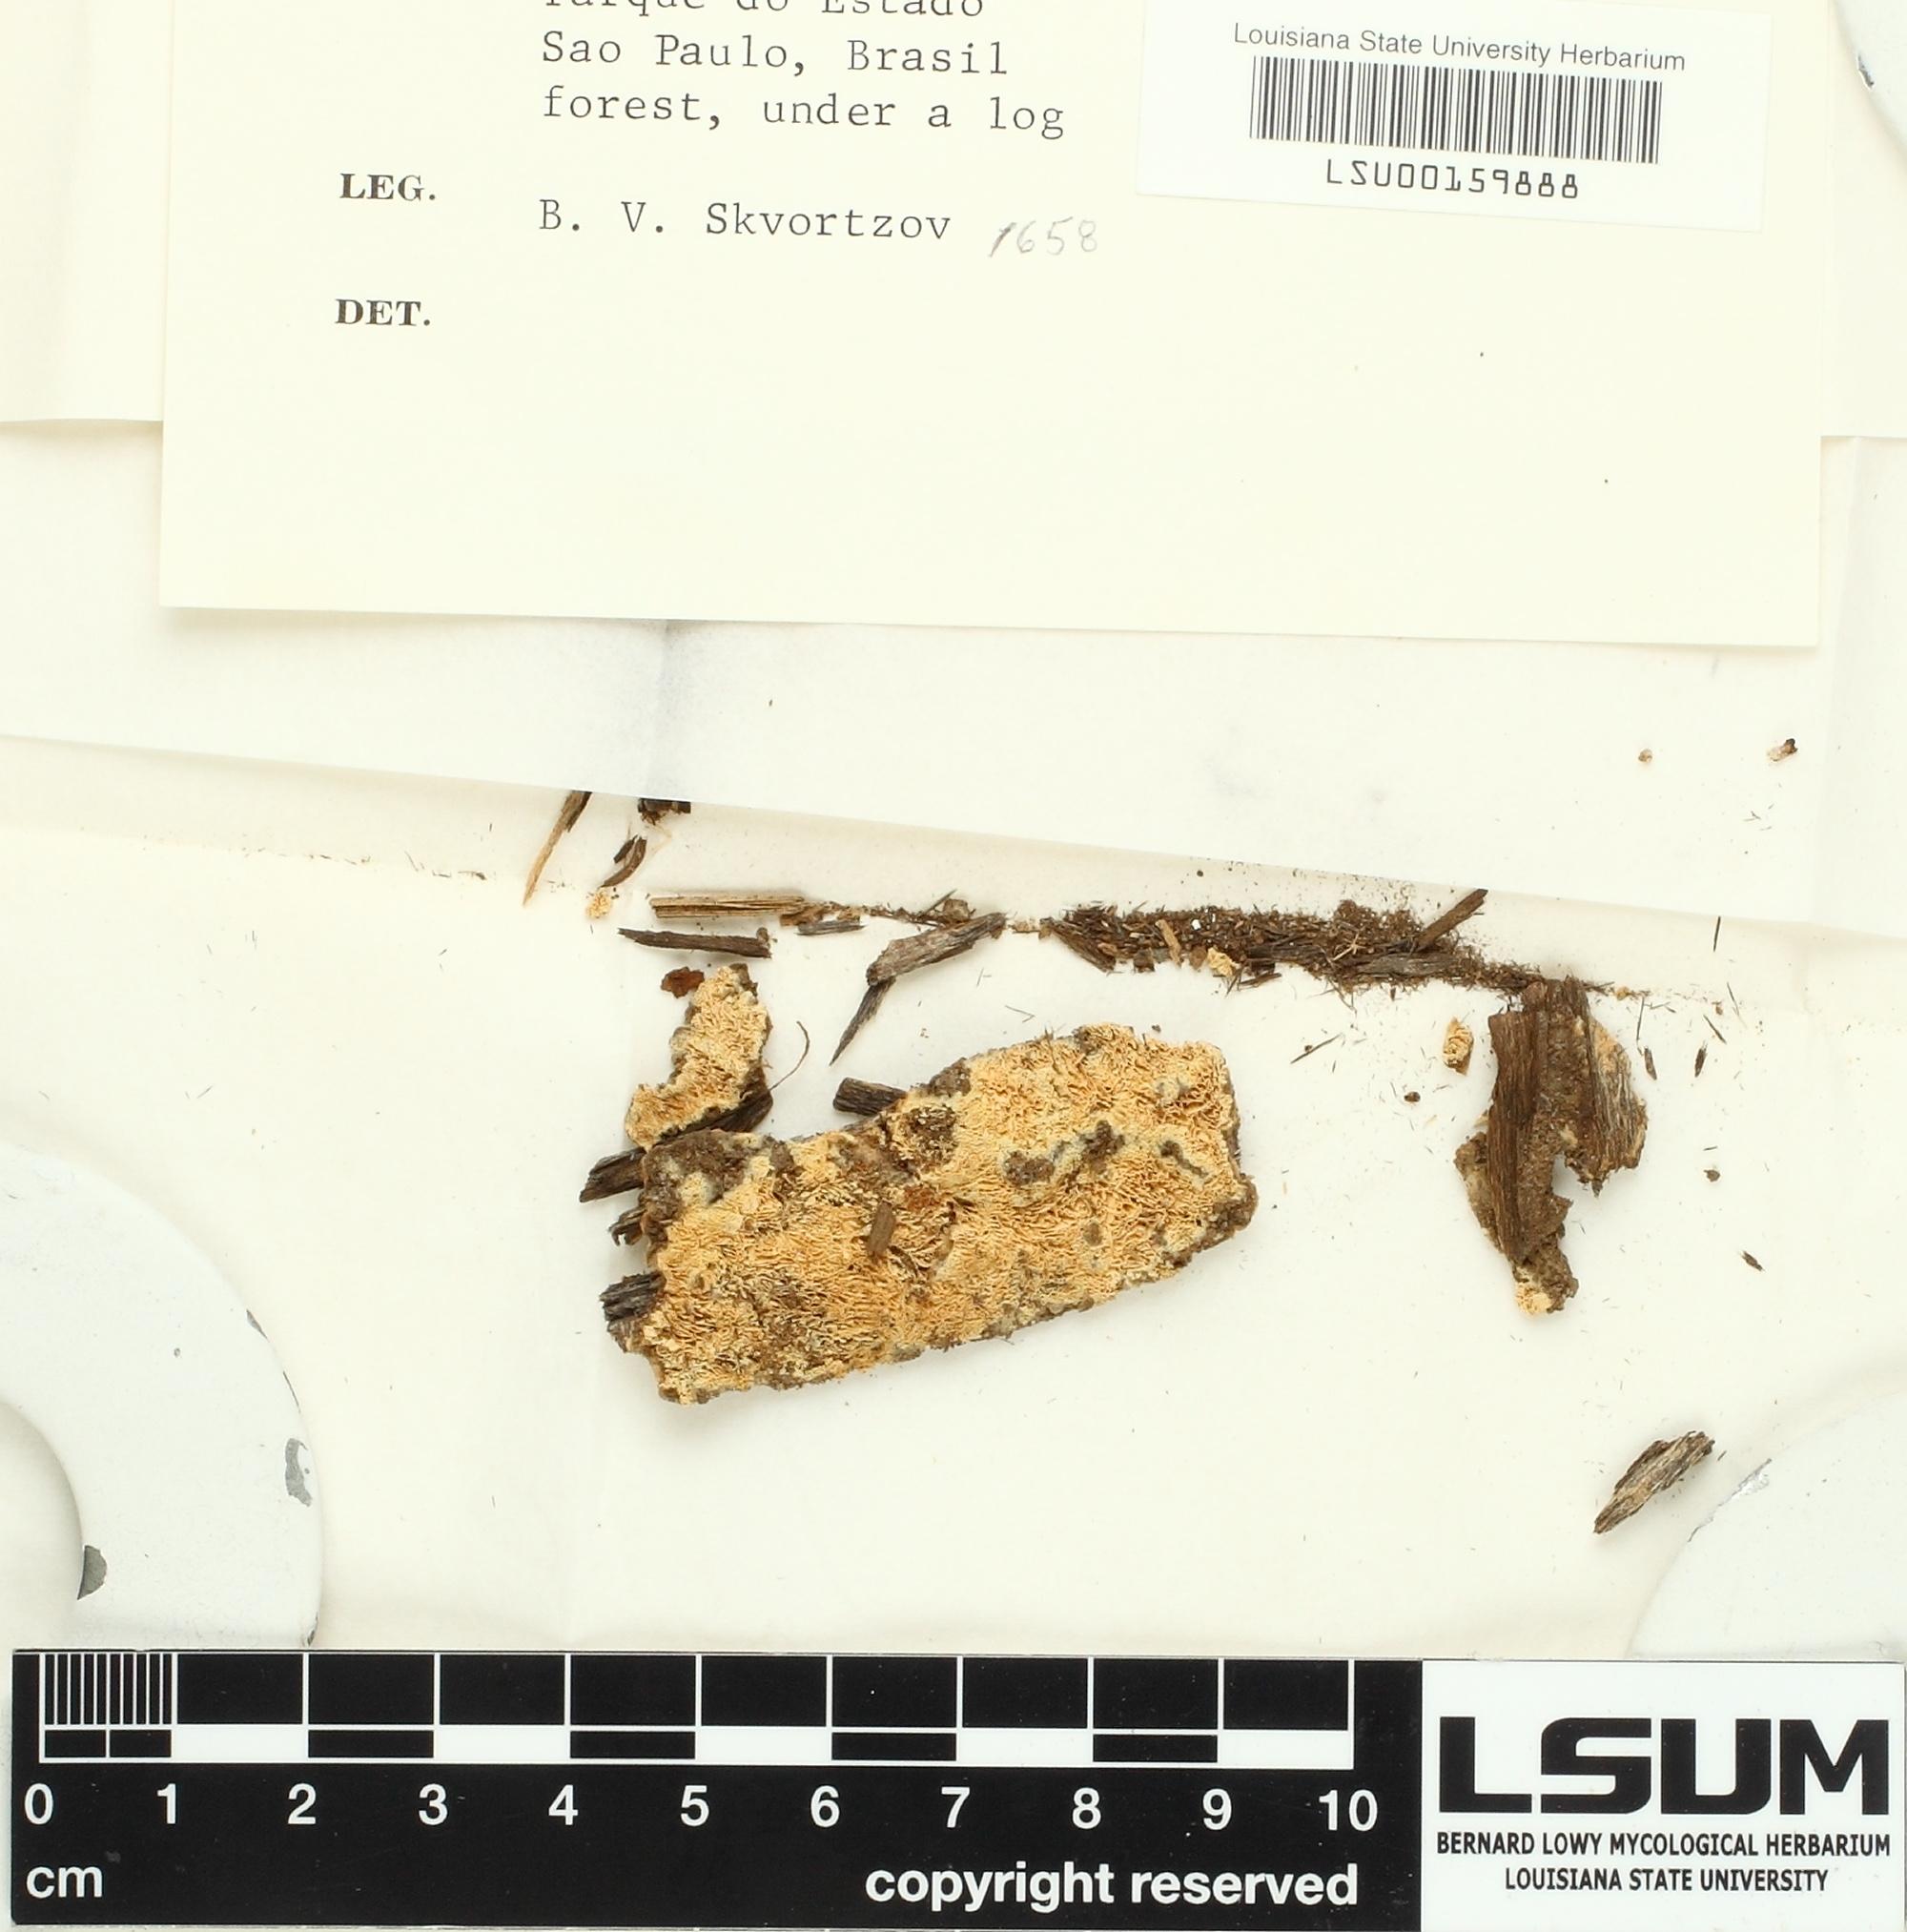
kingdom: Fungi
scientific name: Fungi
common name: Fungi
